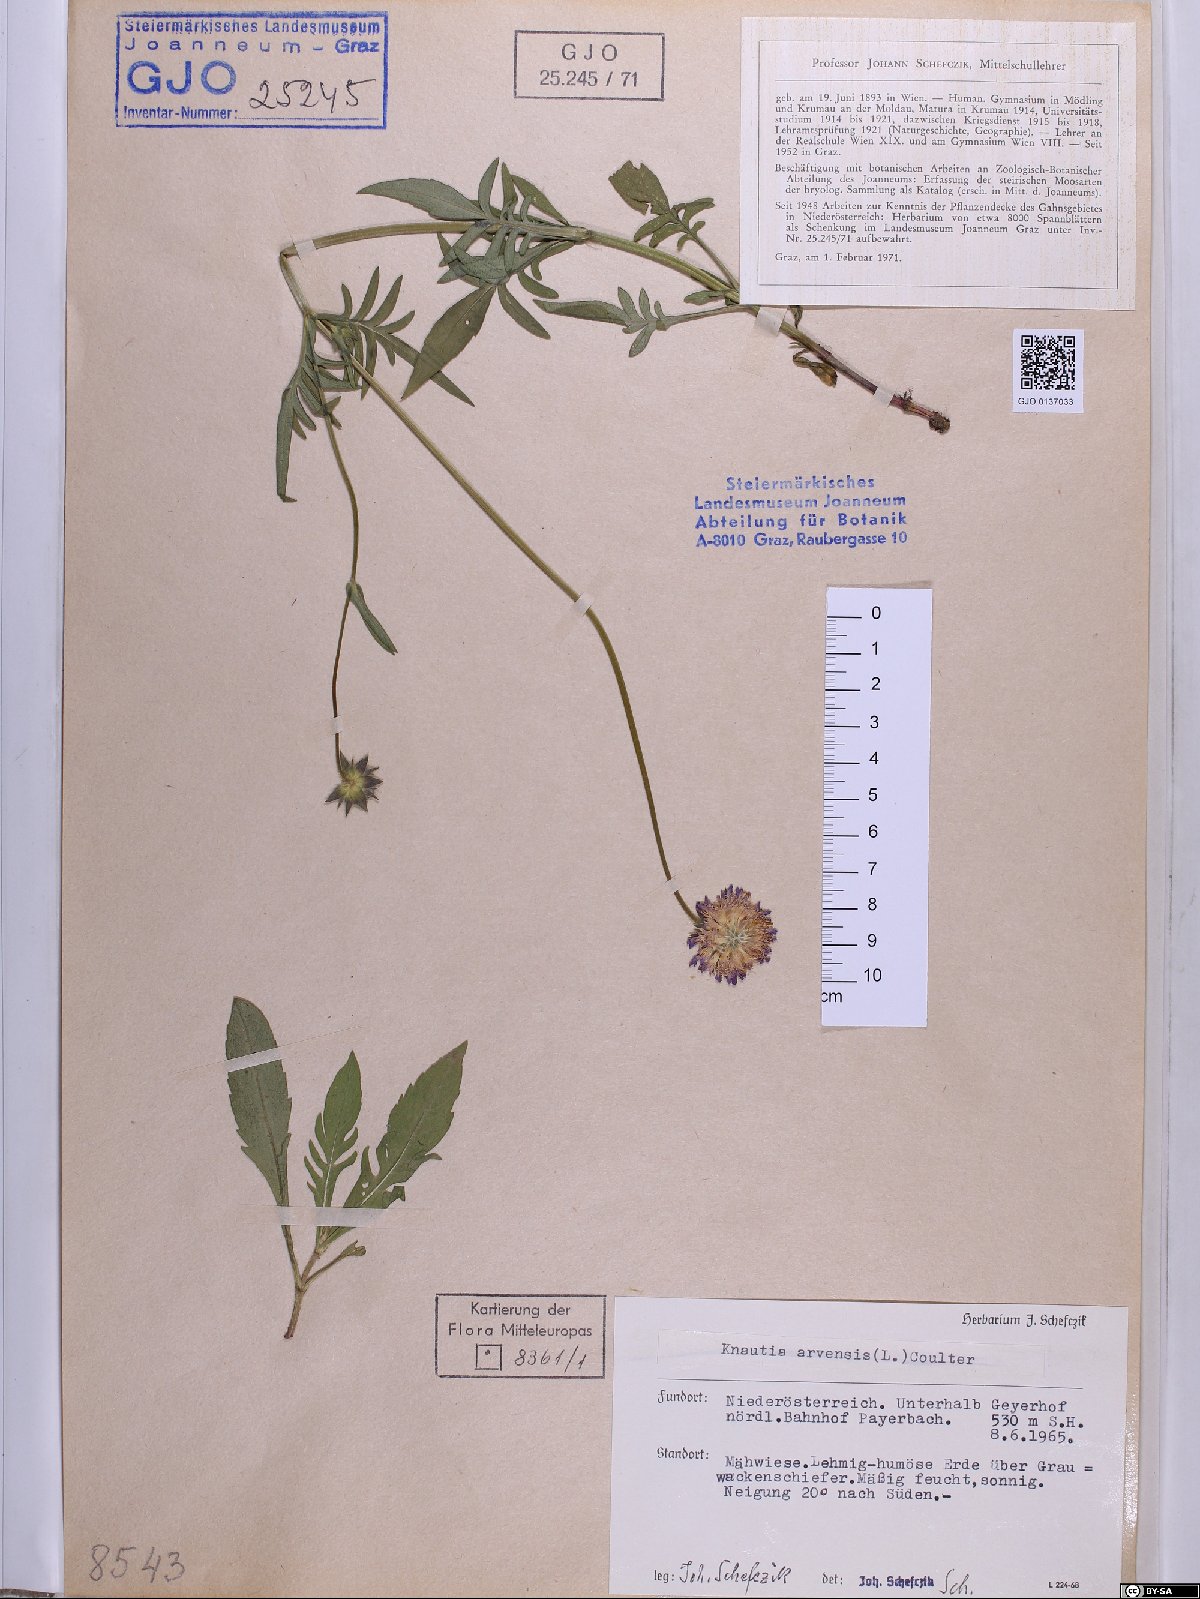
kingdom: Plantae
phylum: Tracheophyta
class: Magnoliopsida
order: Dipsacales
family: Caprifoliaceae
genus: Knautia
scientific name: Knautia arvensis
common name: Field scabiosa
